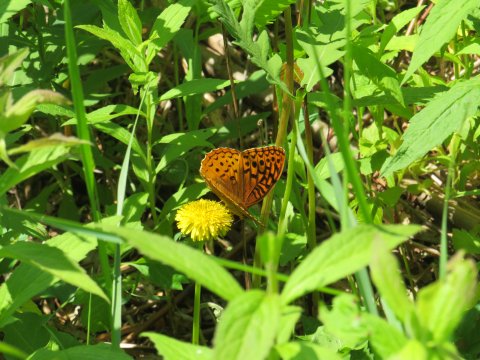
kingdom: Animalia
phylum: Arthropoda
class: Insecta
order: Lepidoptera
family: Nymphalidae
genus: Speyeria
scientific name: Speyeria cybele
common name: Great Spangled Fritillary
